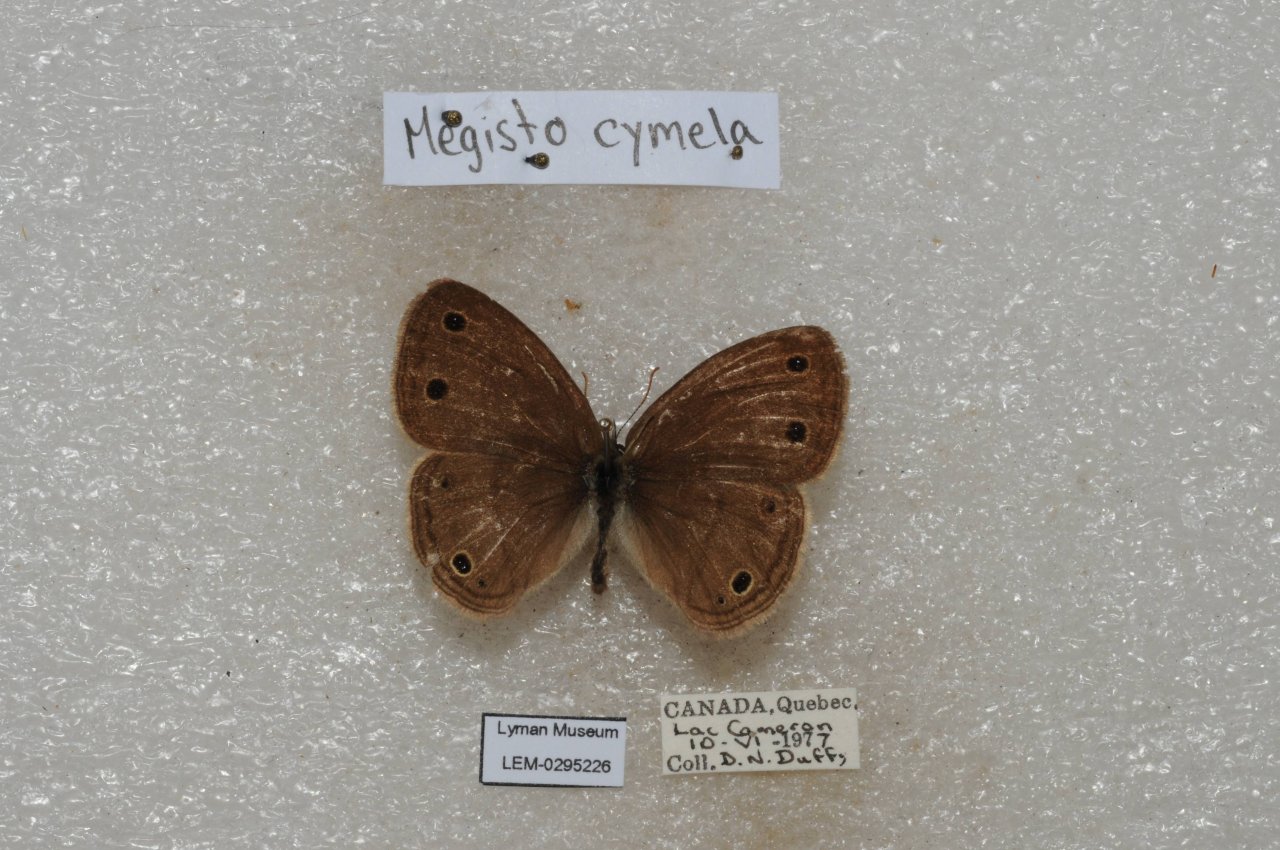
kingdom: Animalia
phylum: Arthropoda
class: Insecta
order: Lepidoptera
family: Nymphalidae
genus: Euptychia
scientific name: Euptychia cymela
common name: Little Wood Satyr
